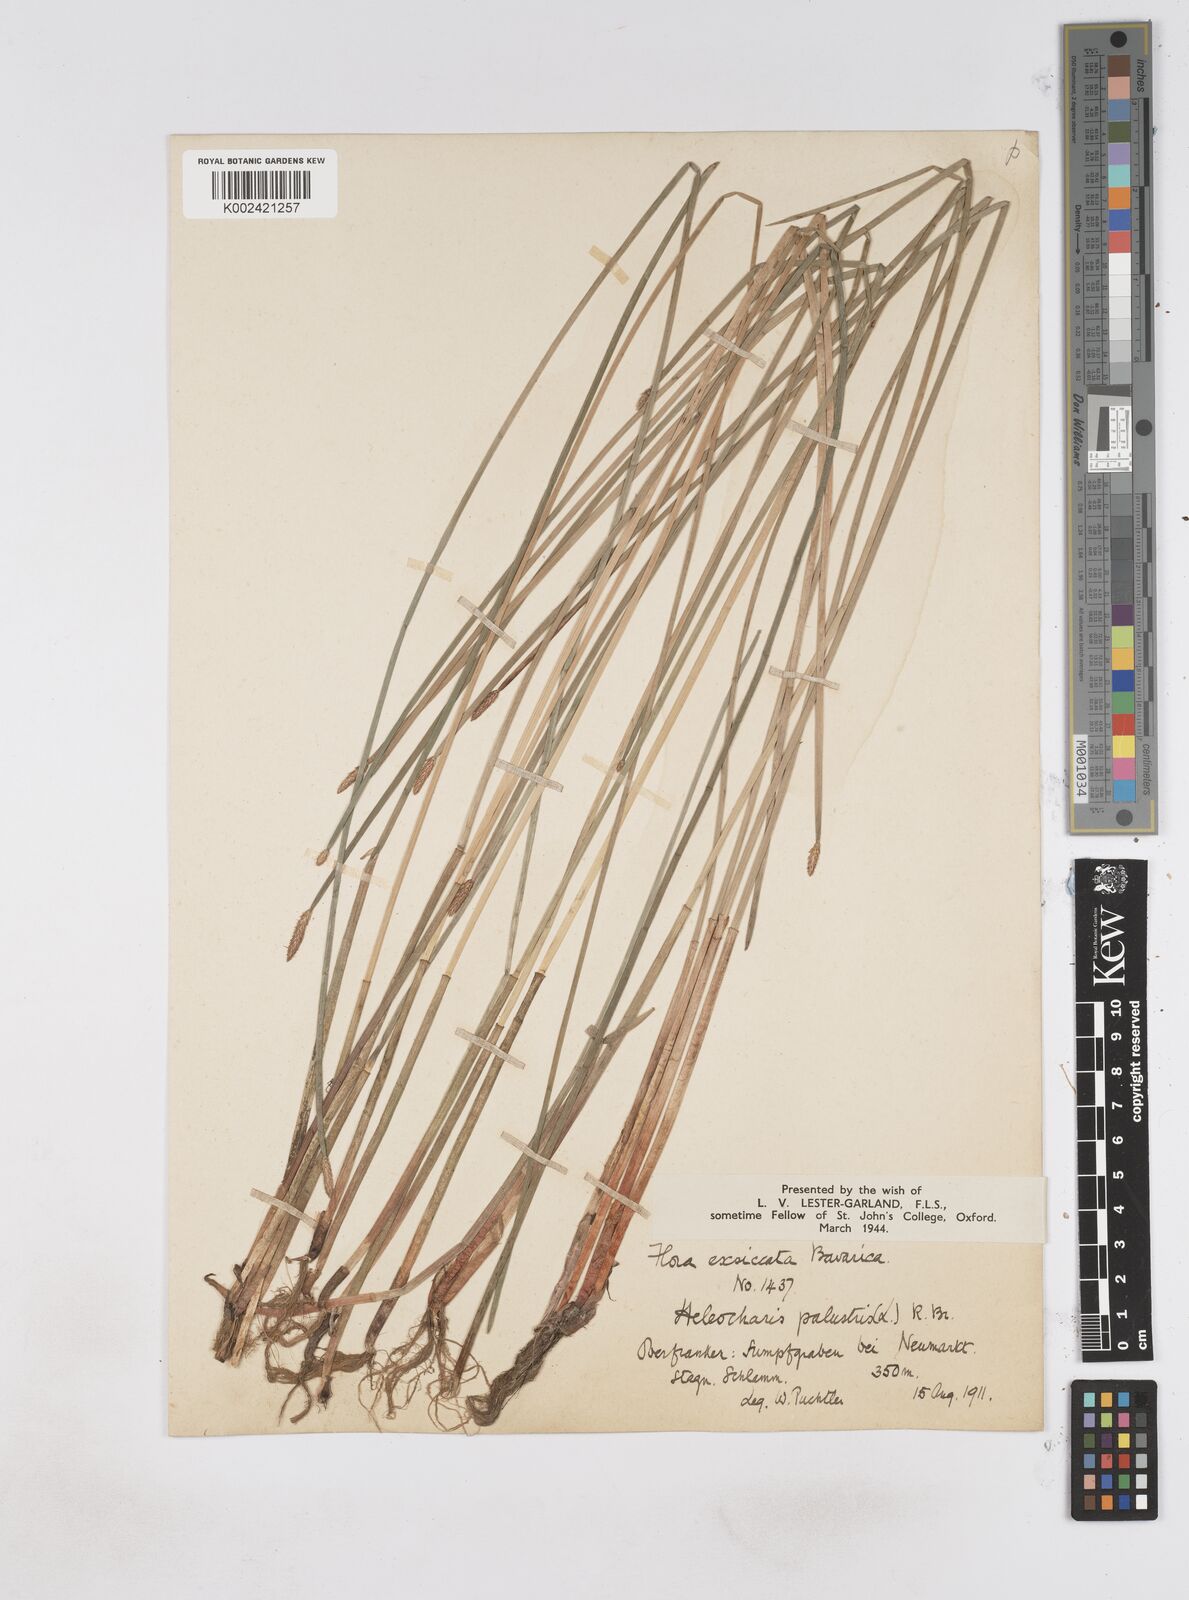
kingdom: Plantae
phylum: Tracheophyta
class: Liliopsida
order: Poales
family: Cyperaceae
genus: Eleocharis
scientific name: Eleocharis palustris
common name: Common spike-rush
